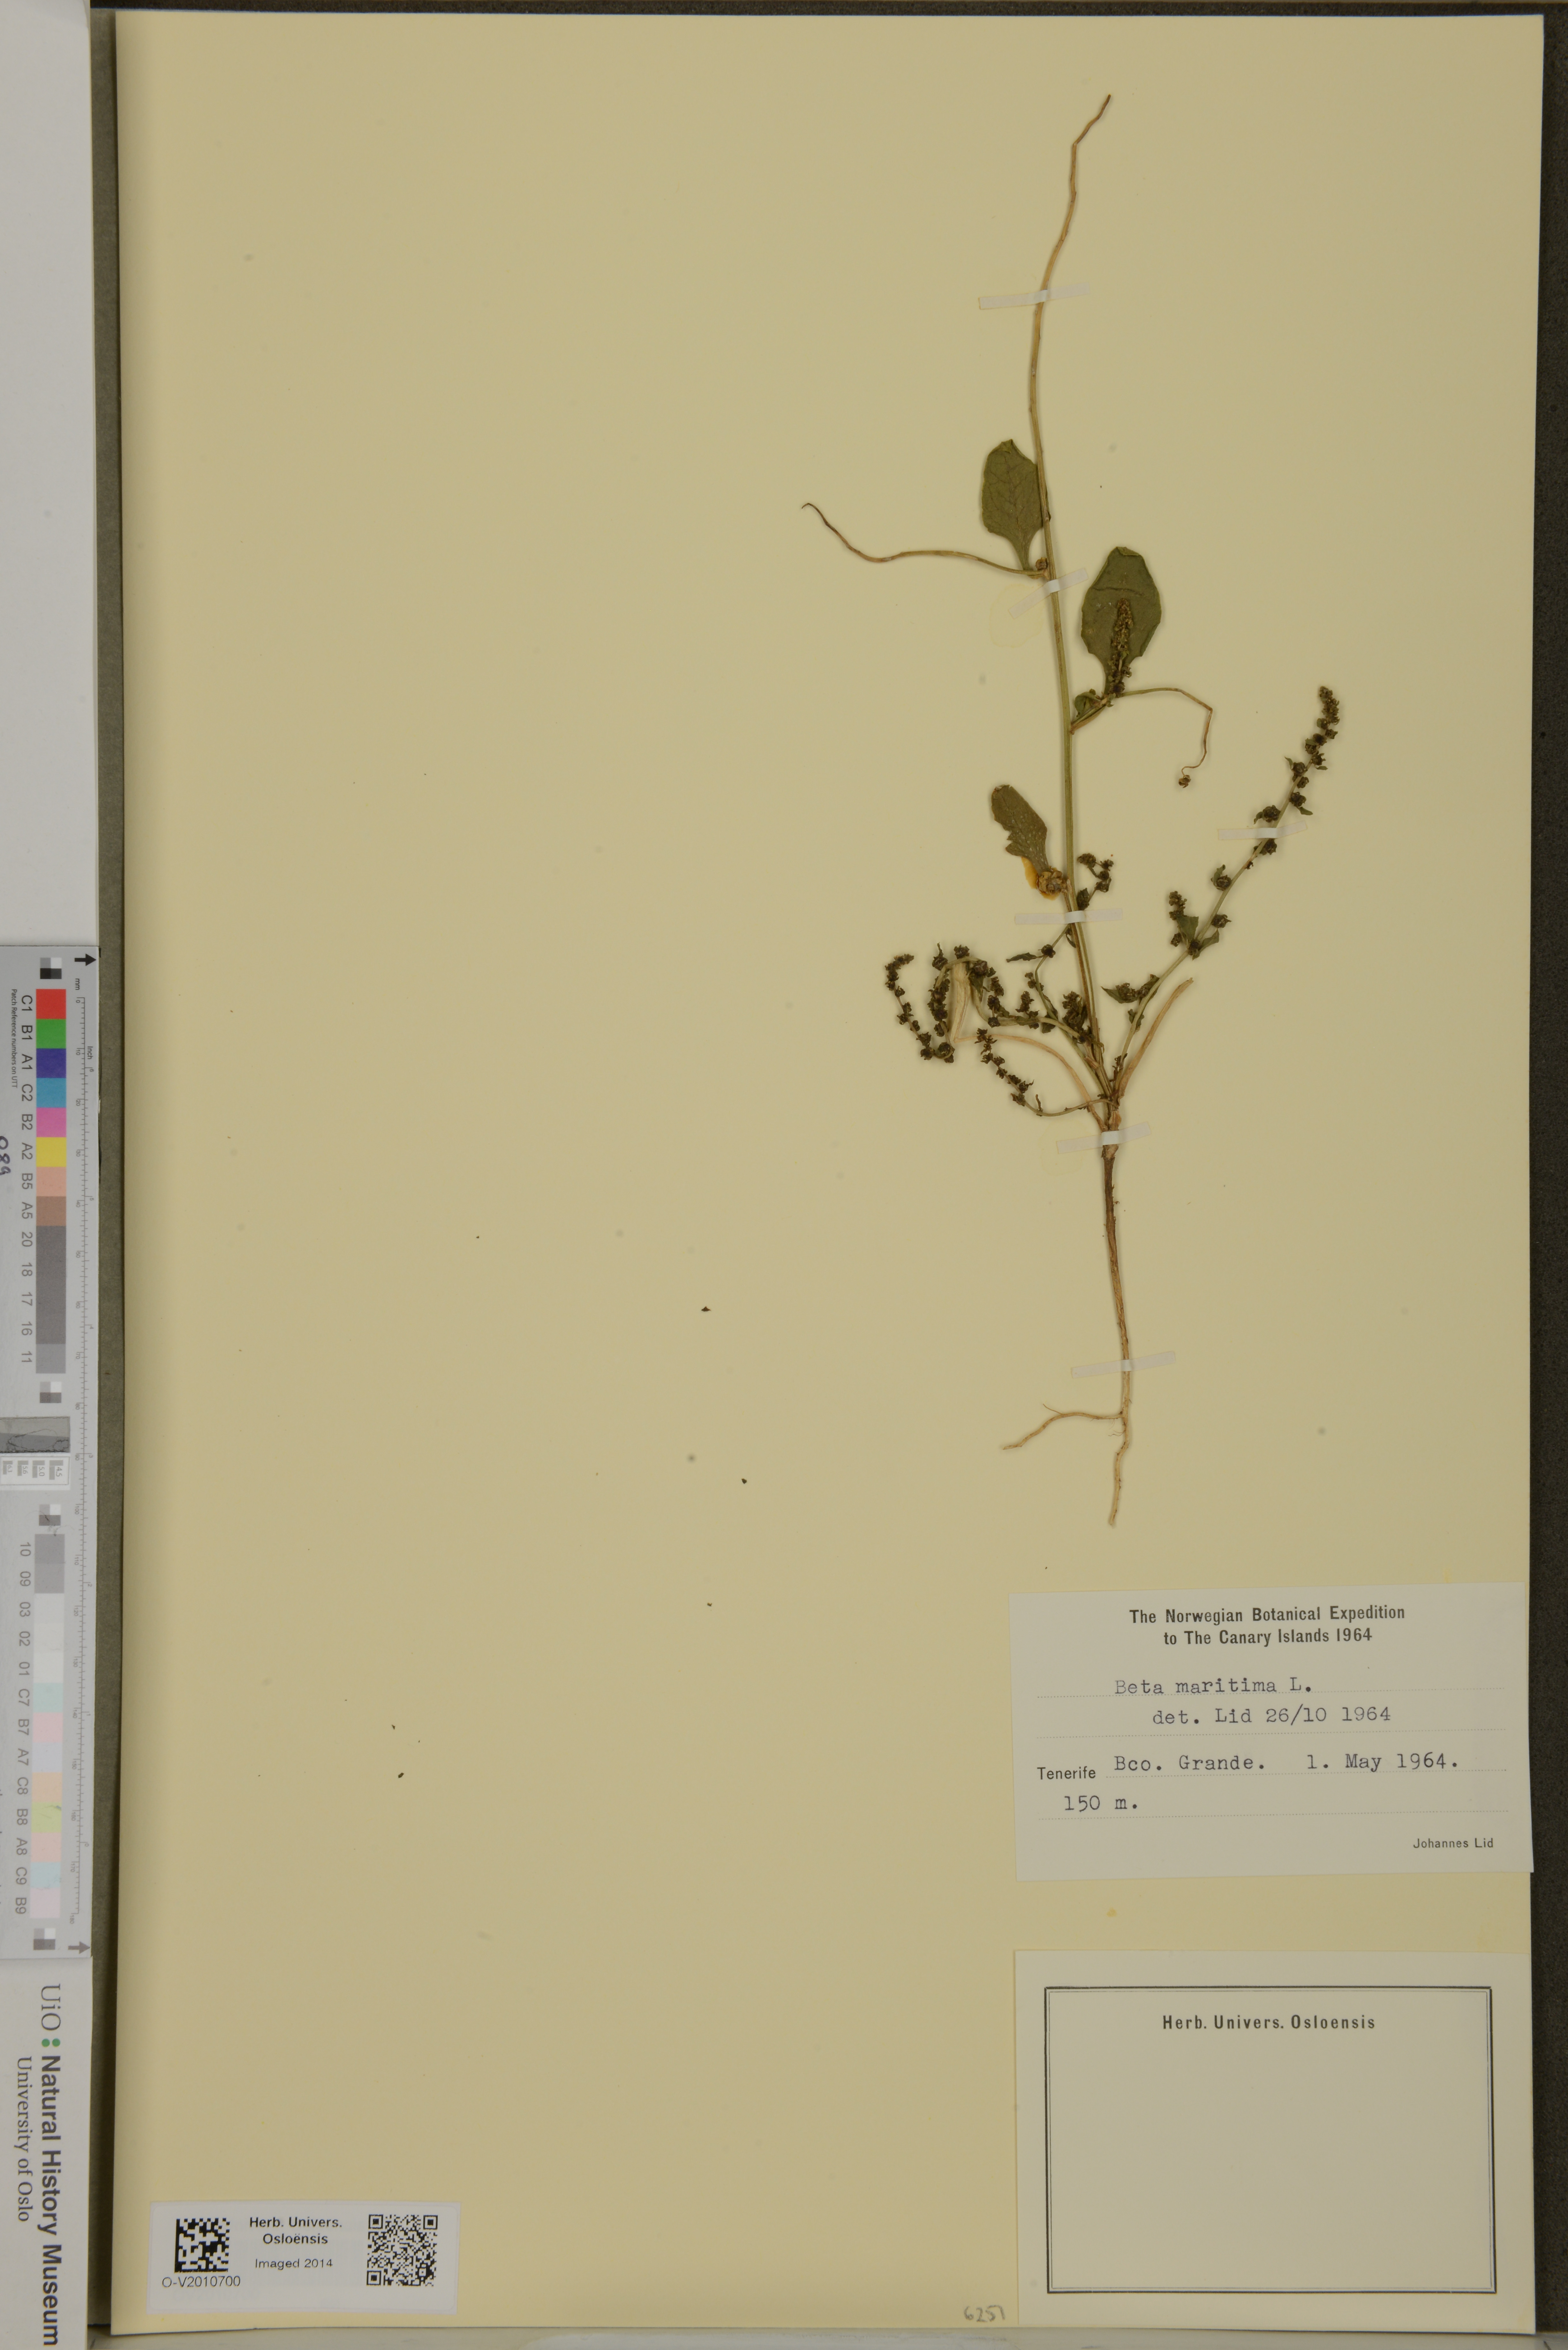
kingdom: Plantae
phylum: Tracheophyta
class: Magnoliopsida
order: Caryophyllales
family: Amaranthaceae
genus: Beta
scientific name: Beta maritima
